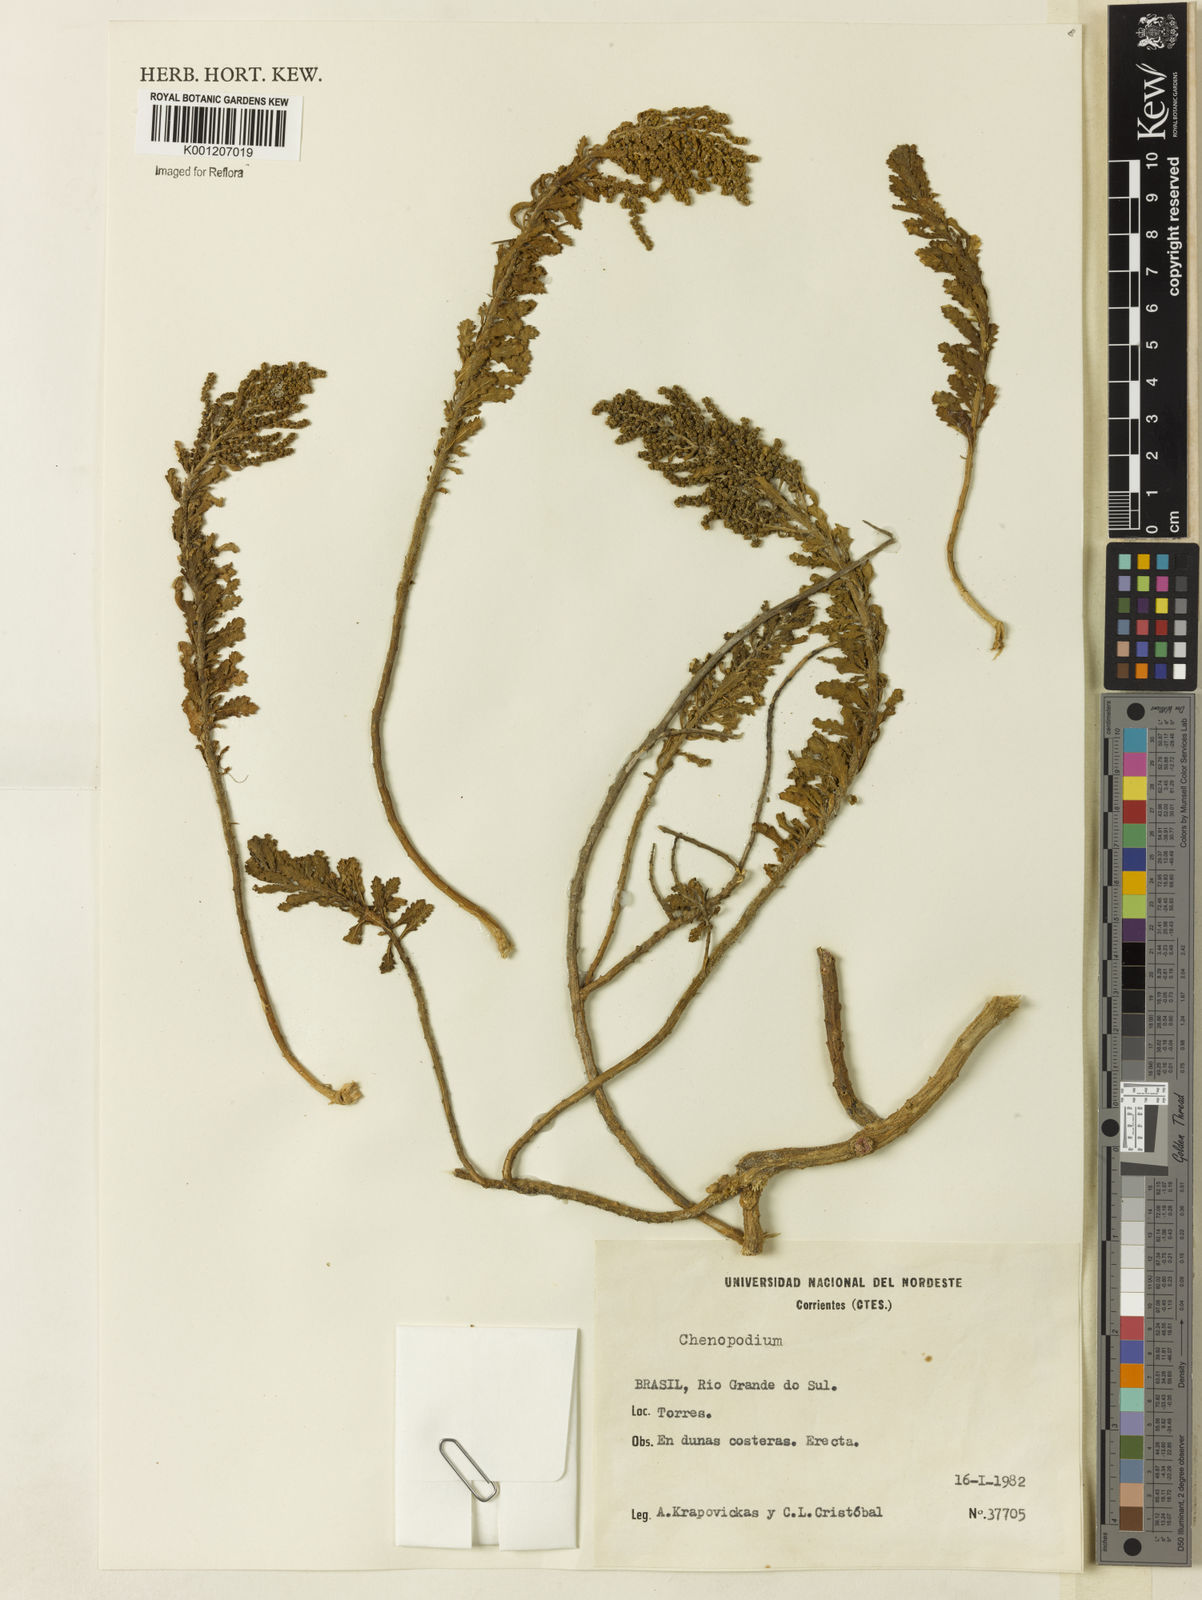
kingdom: Plantae
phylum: Tracheophyta
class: Magnoliopsida
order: Caryophyllales
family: Amaranthaceae
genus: Chenopodium
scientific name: Chenopodium
